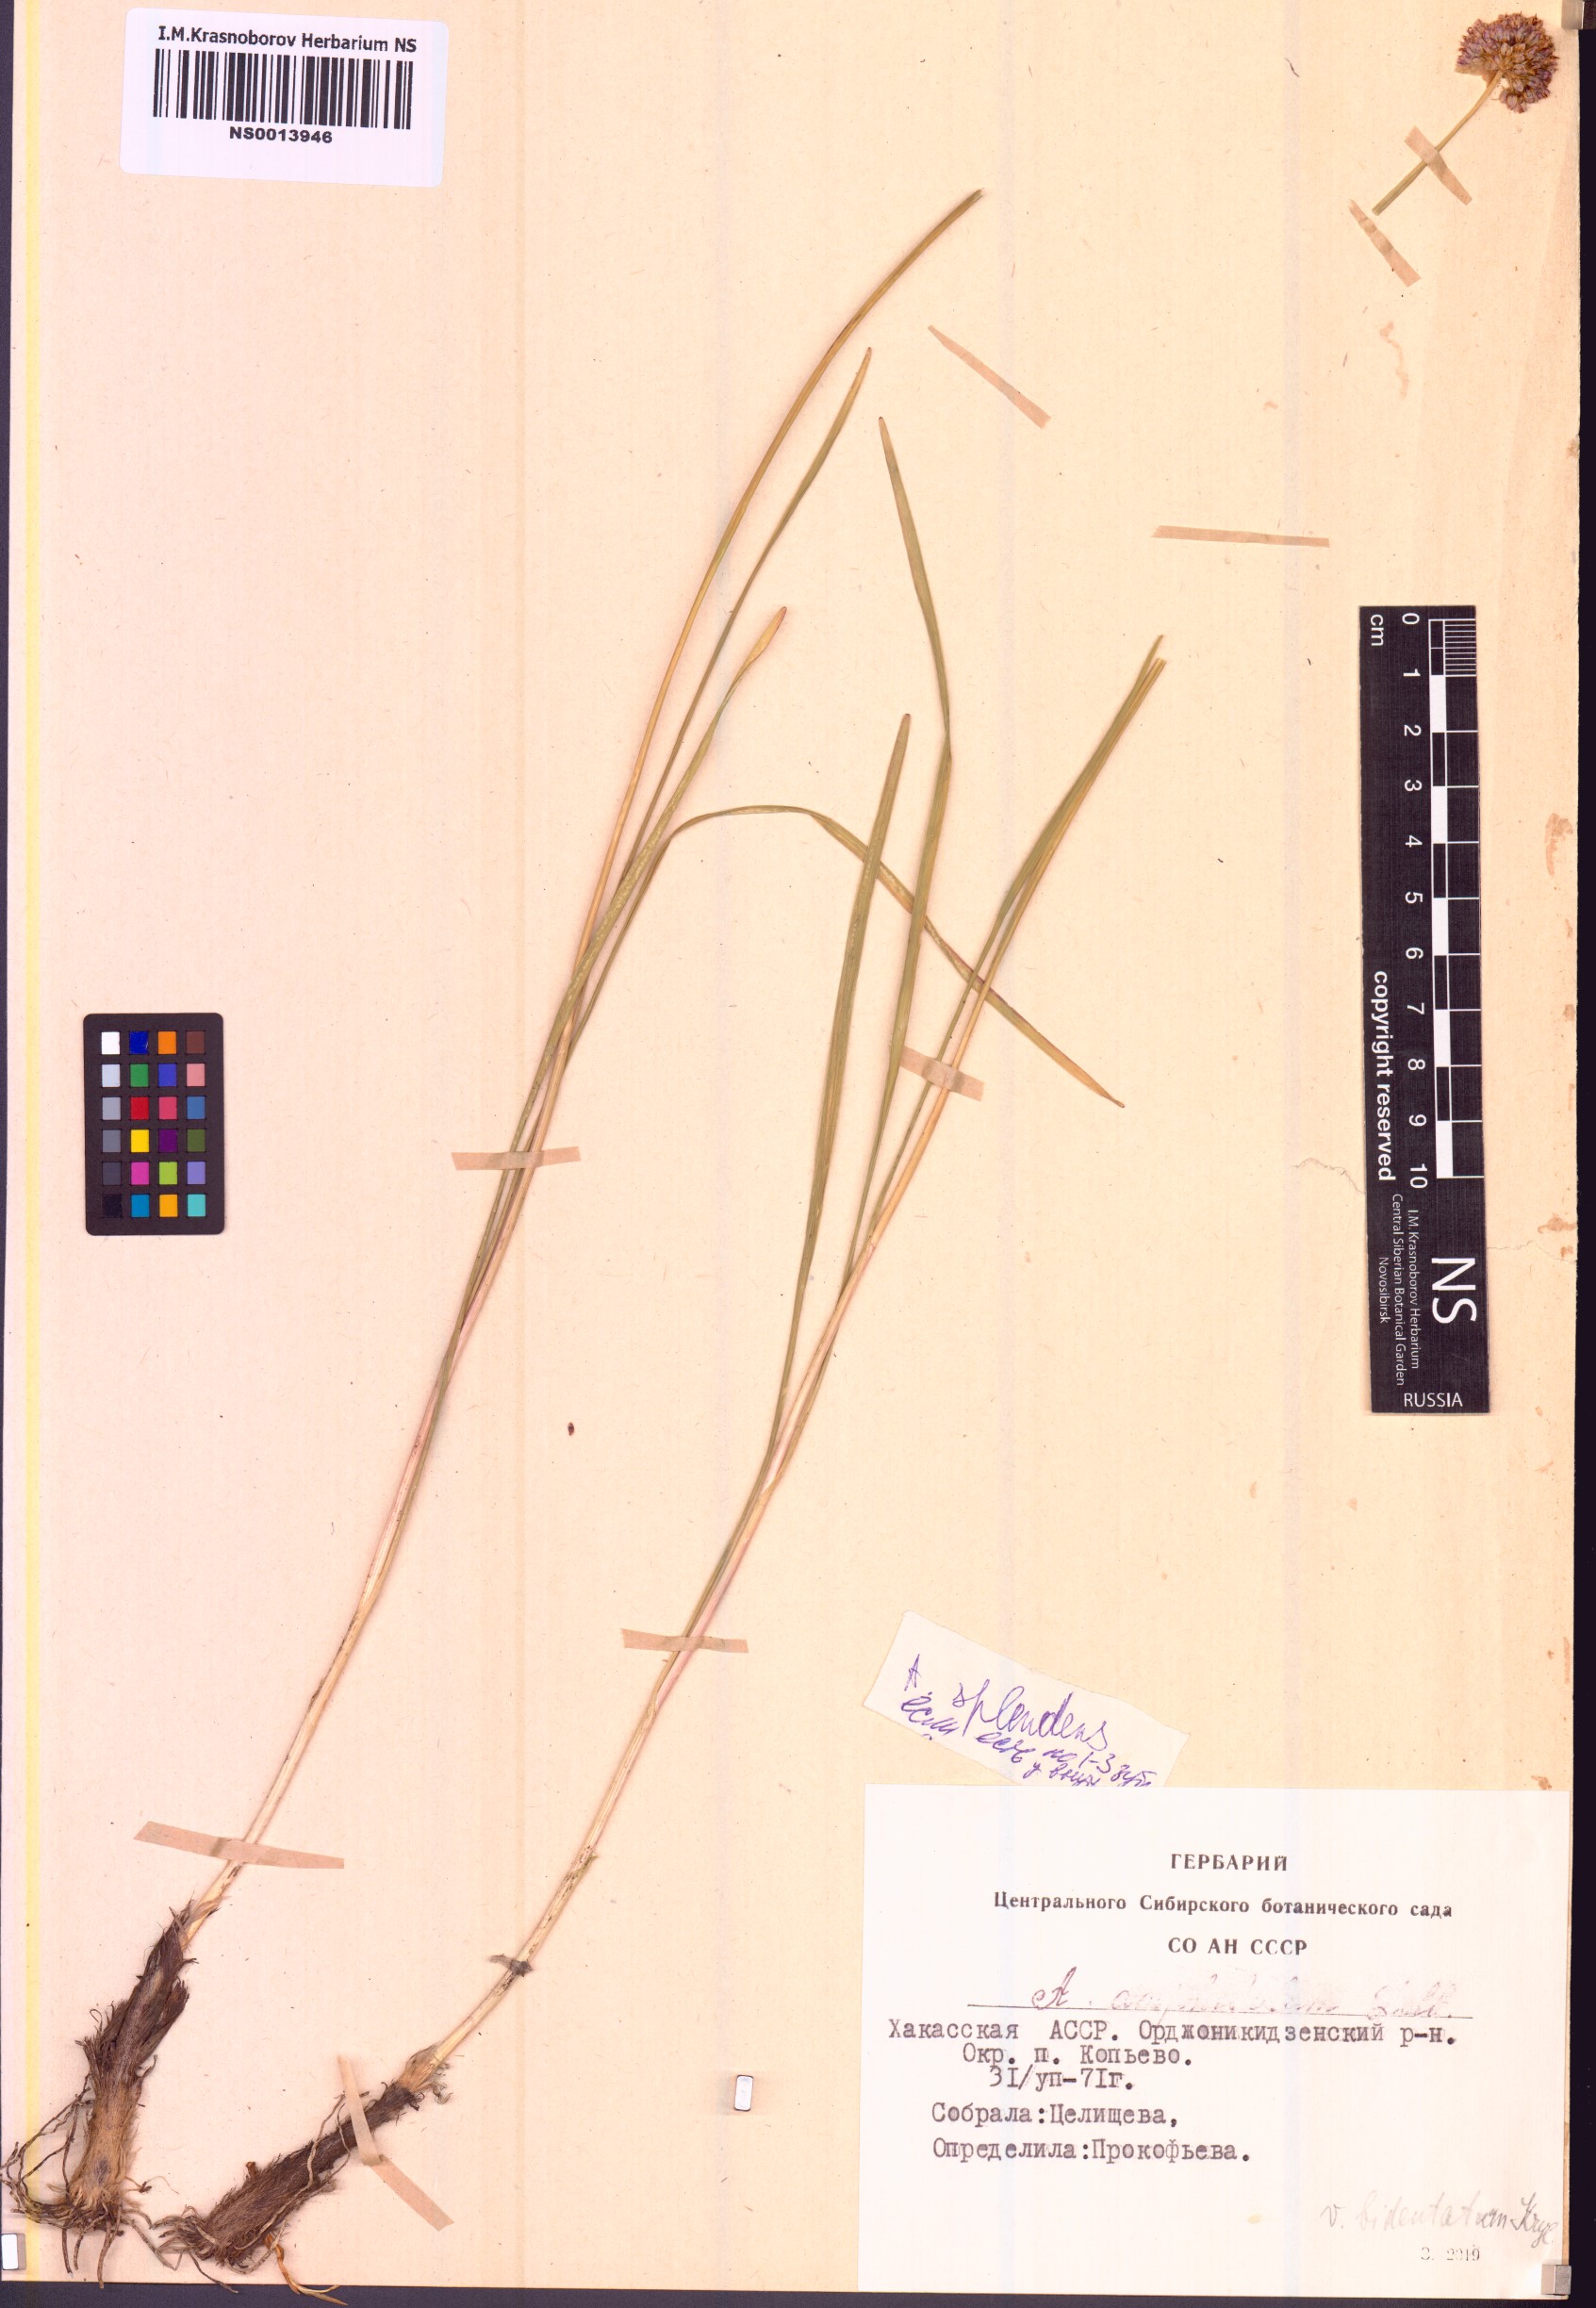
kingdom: Plantae
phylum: Tracheophyta
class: Liliopsida
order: Asparagales
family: Amaryllidaceae
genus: Allium
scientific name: Allium splendens
